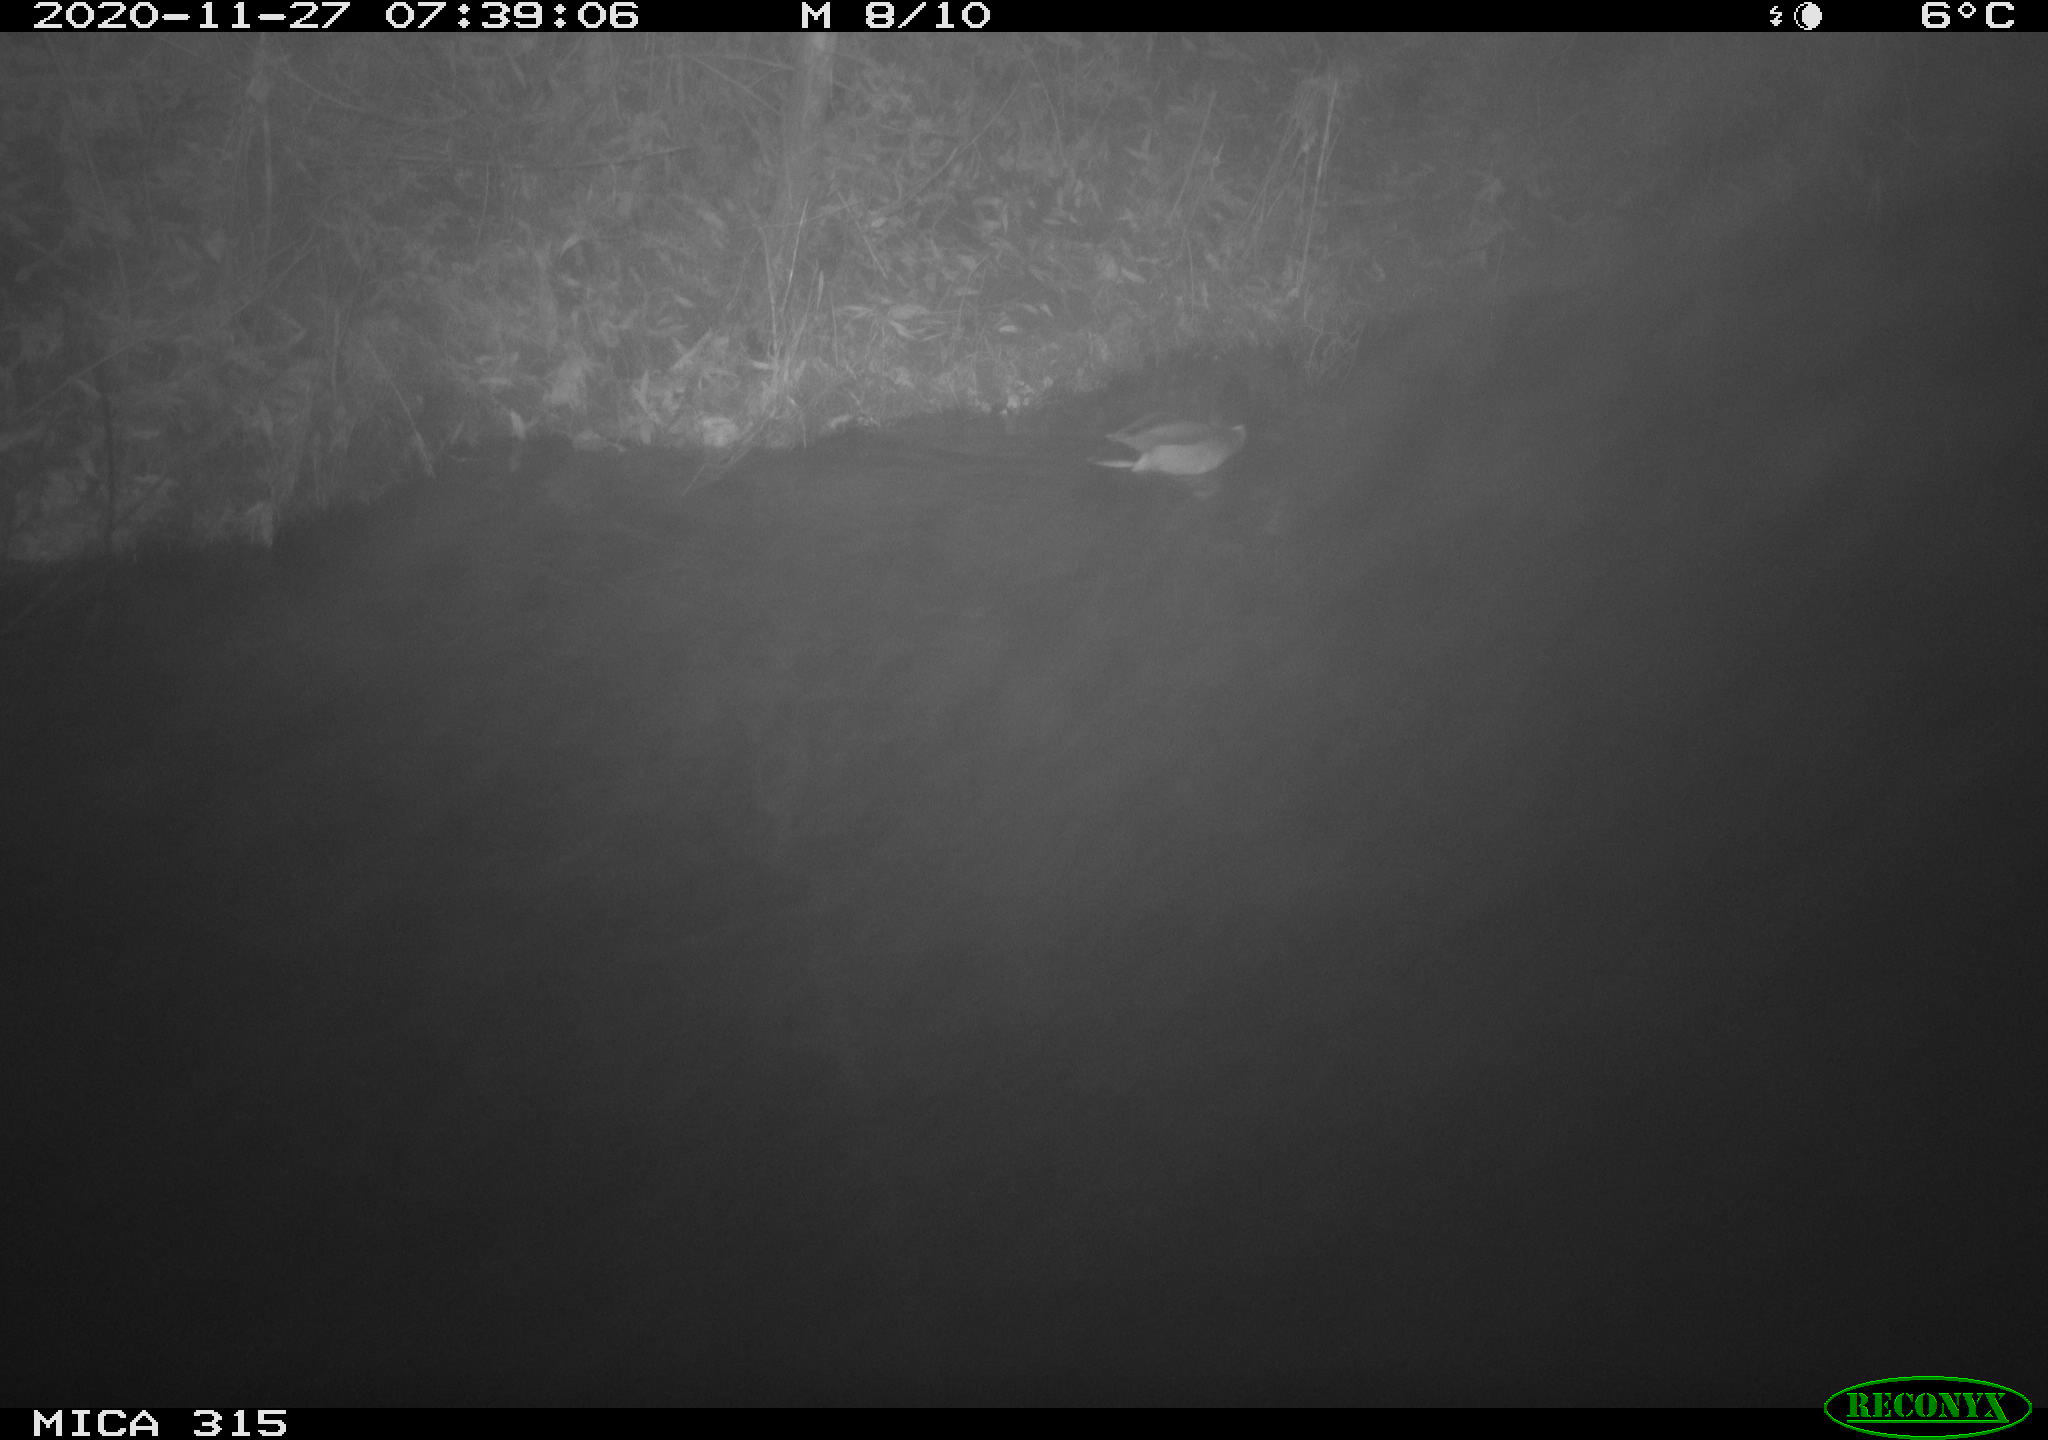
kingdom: Animalia
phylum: Chordata
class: Aves
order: Anseriformes
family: Anatidae
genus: Anas
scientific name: Anas platyrhynchos
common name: Mallard
